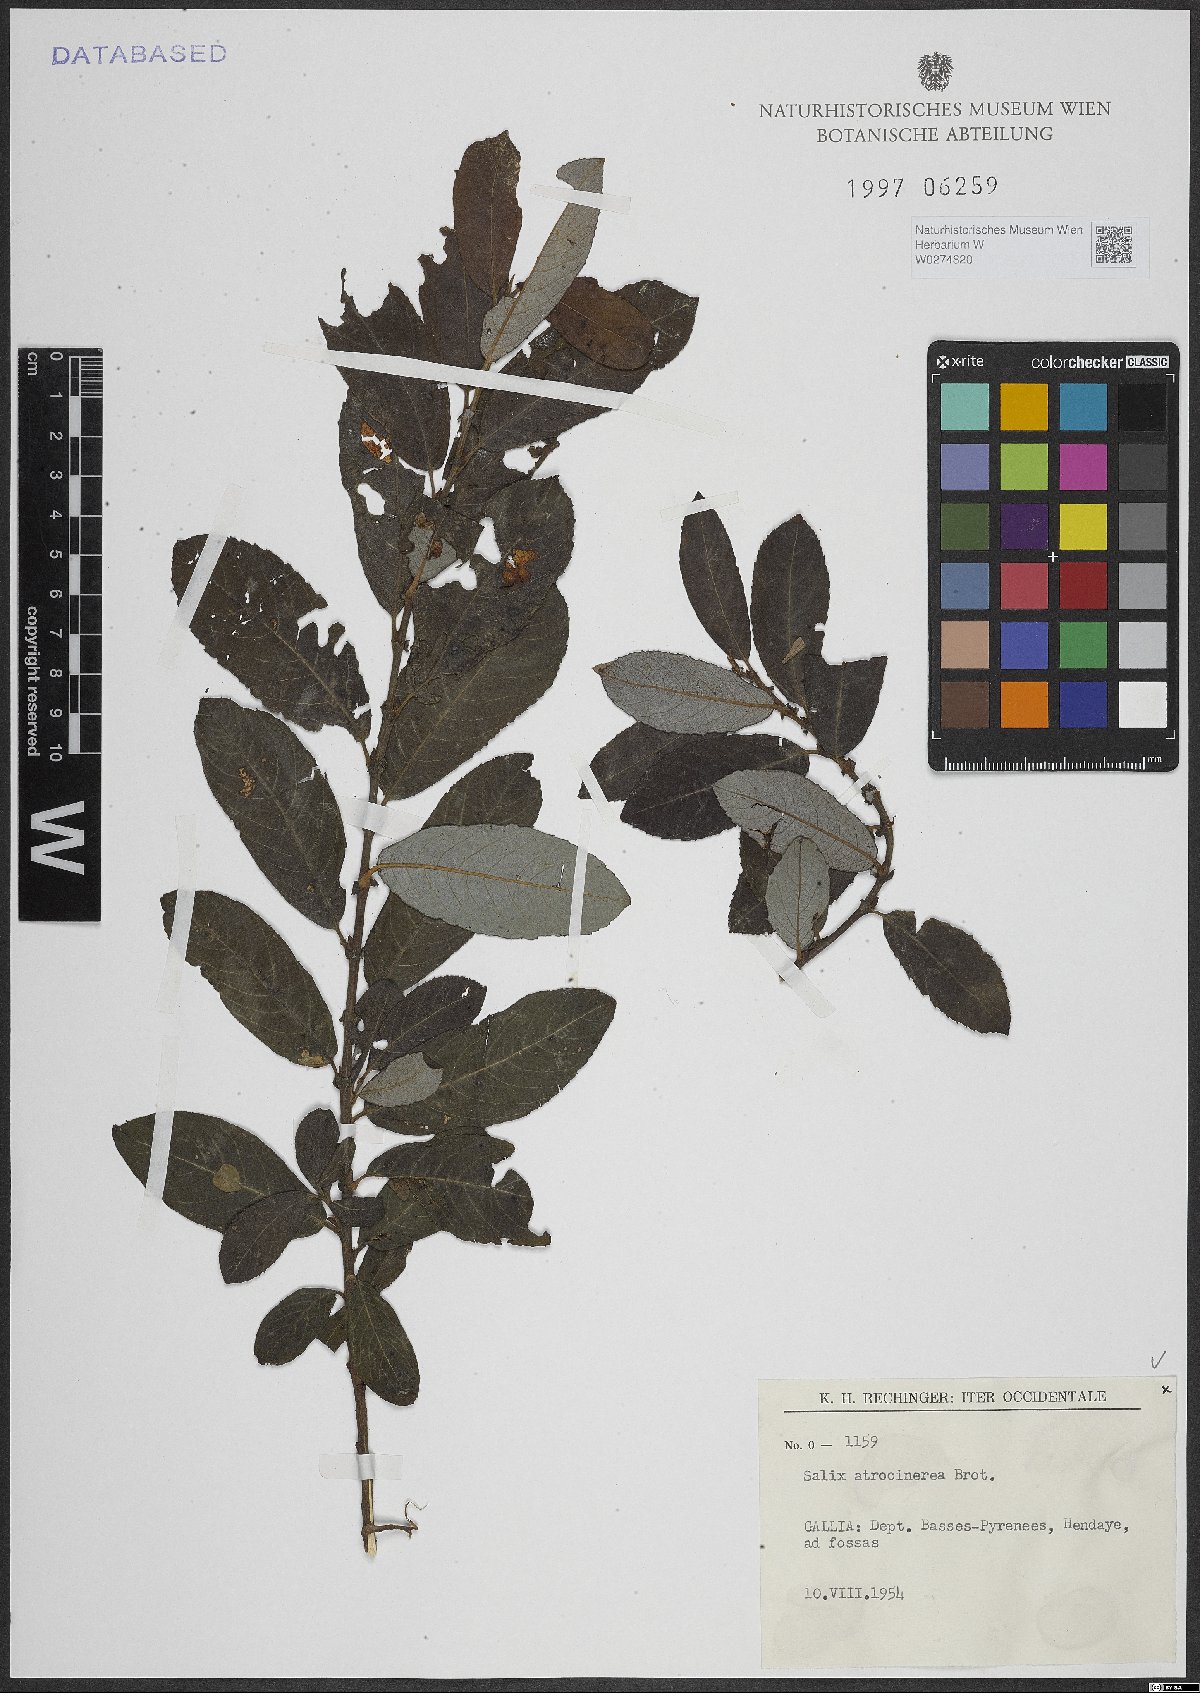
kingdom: Plantae
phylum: Tracheophyta
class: Magnoliopsida
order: Malpighiales
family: Salicaceae
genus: Salix
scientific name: Salix atrocinerea
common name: Rusty willow
